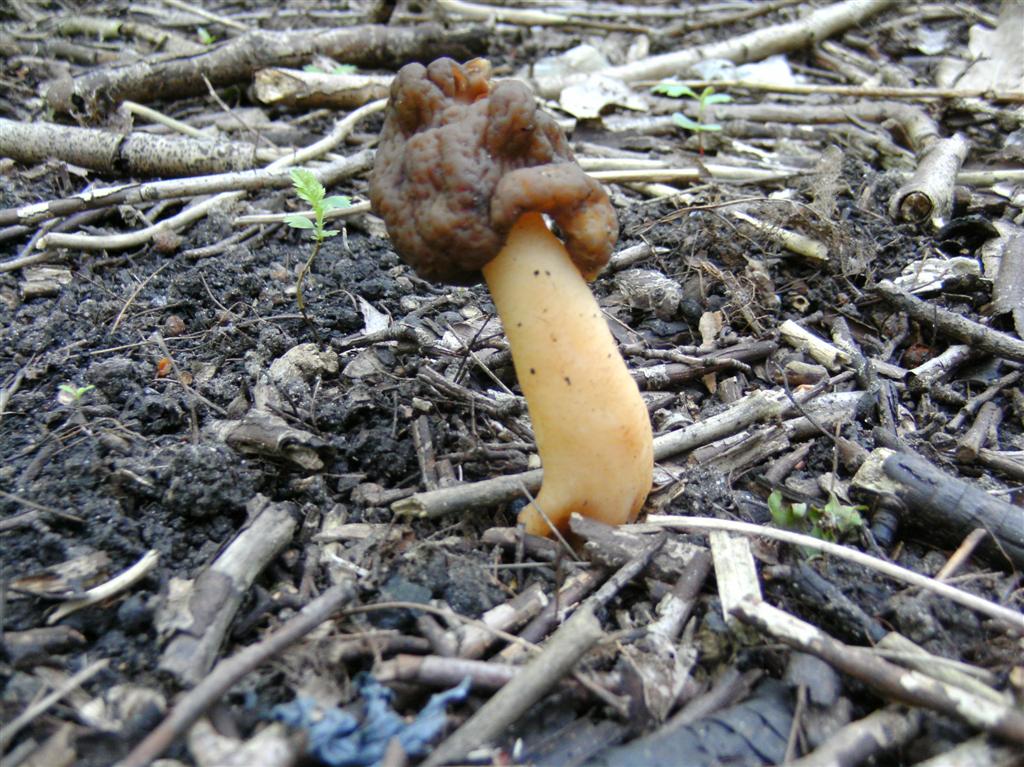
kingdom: Fungi
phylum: Ascomycota
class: Pezizomycetes
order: Pezizales
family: Morchellaceae
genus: Verpa
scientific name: Verpa conica
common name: glat klokkemorkel
